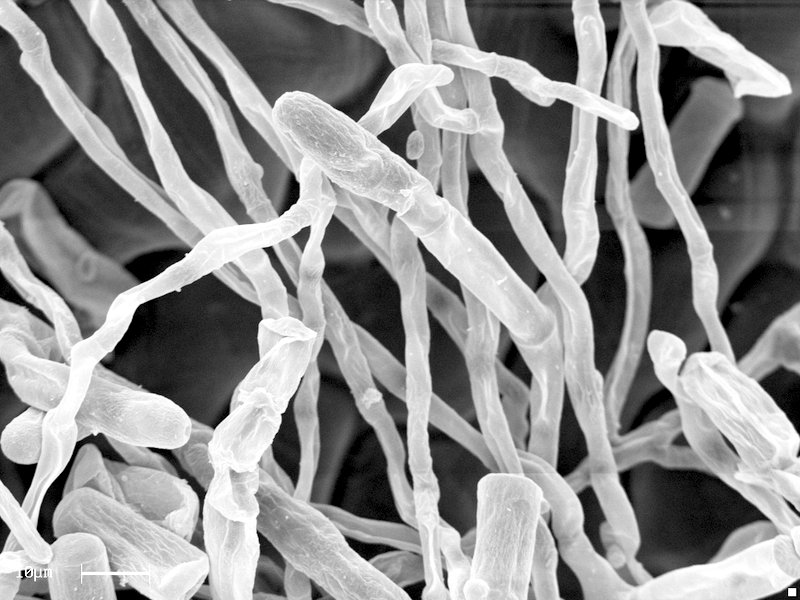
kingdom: Fungi
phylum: Ascomycota
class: Leotiomycetes
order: Helotiales
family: Erysiphaceae
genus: Erysiphe
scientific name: Erysiphe mougeotii
